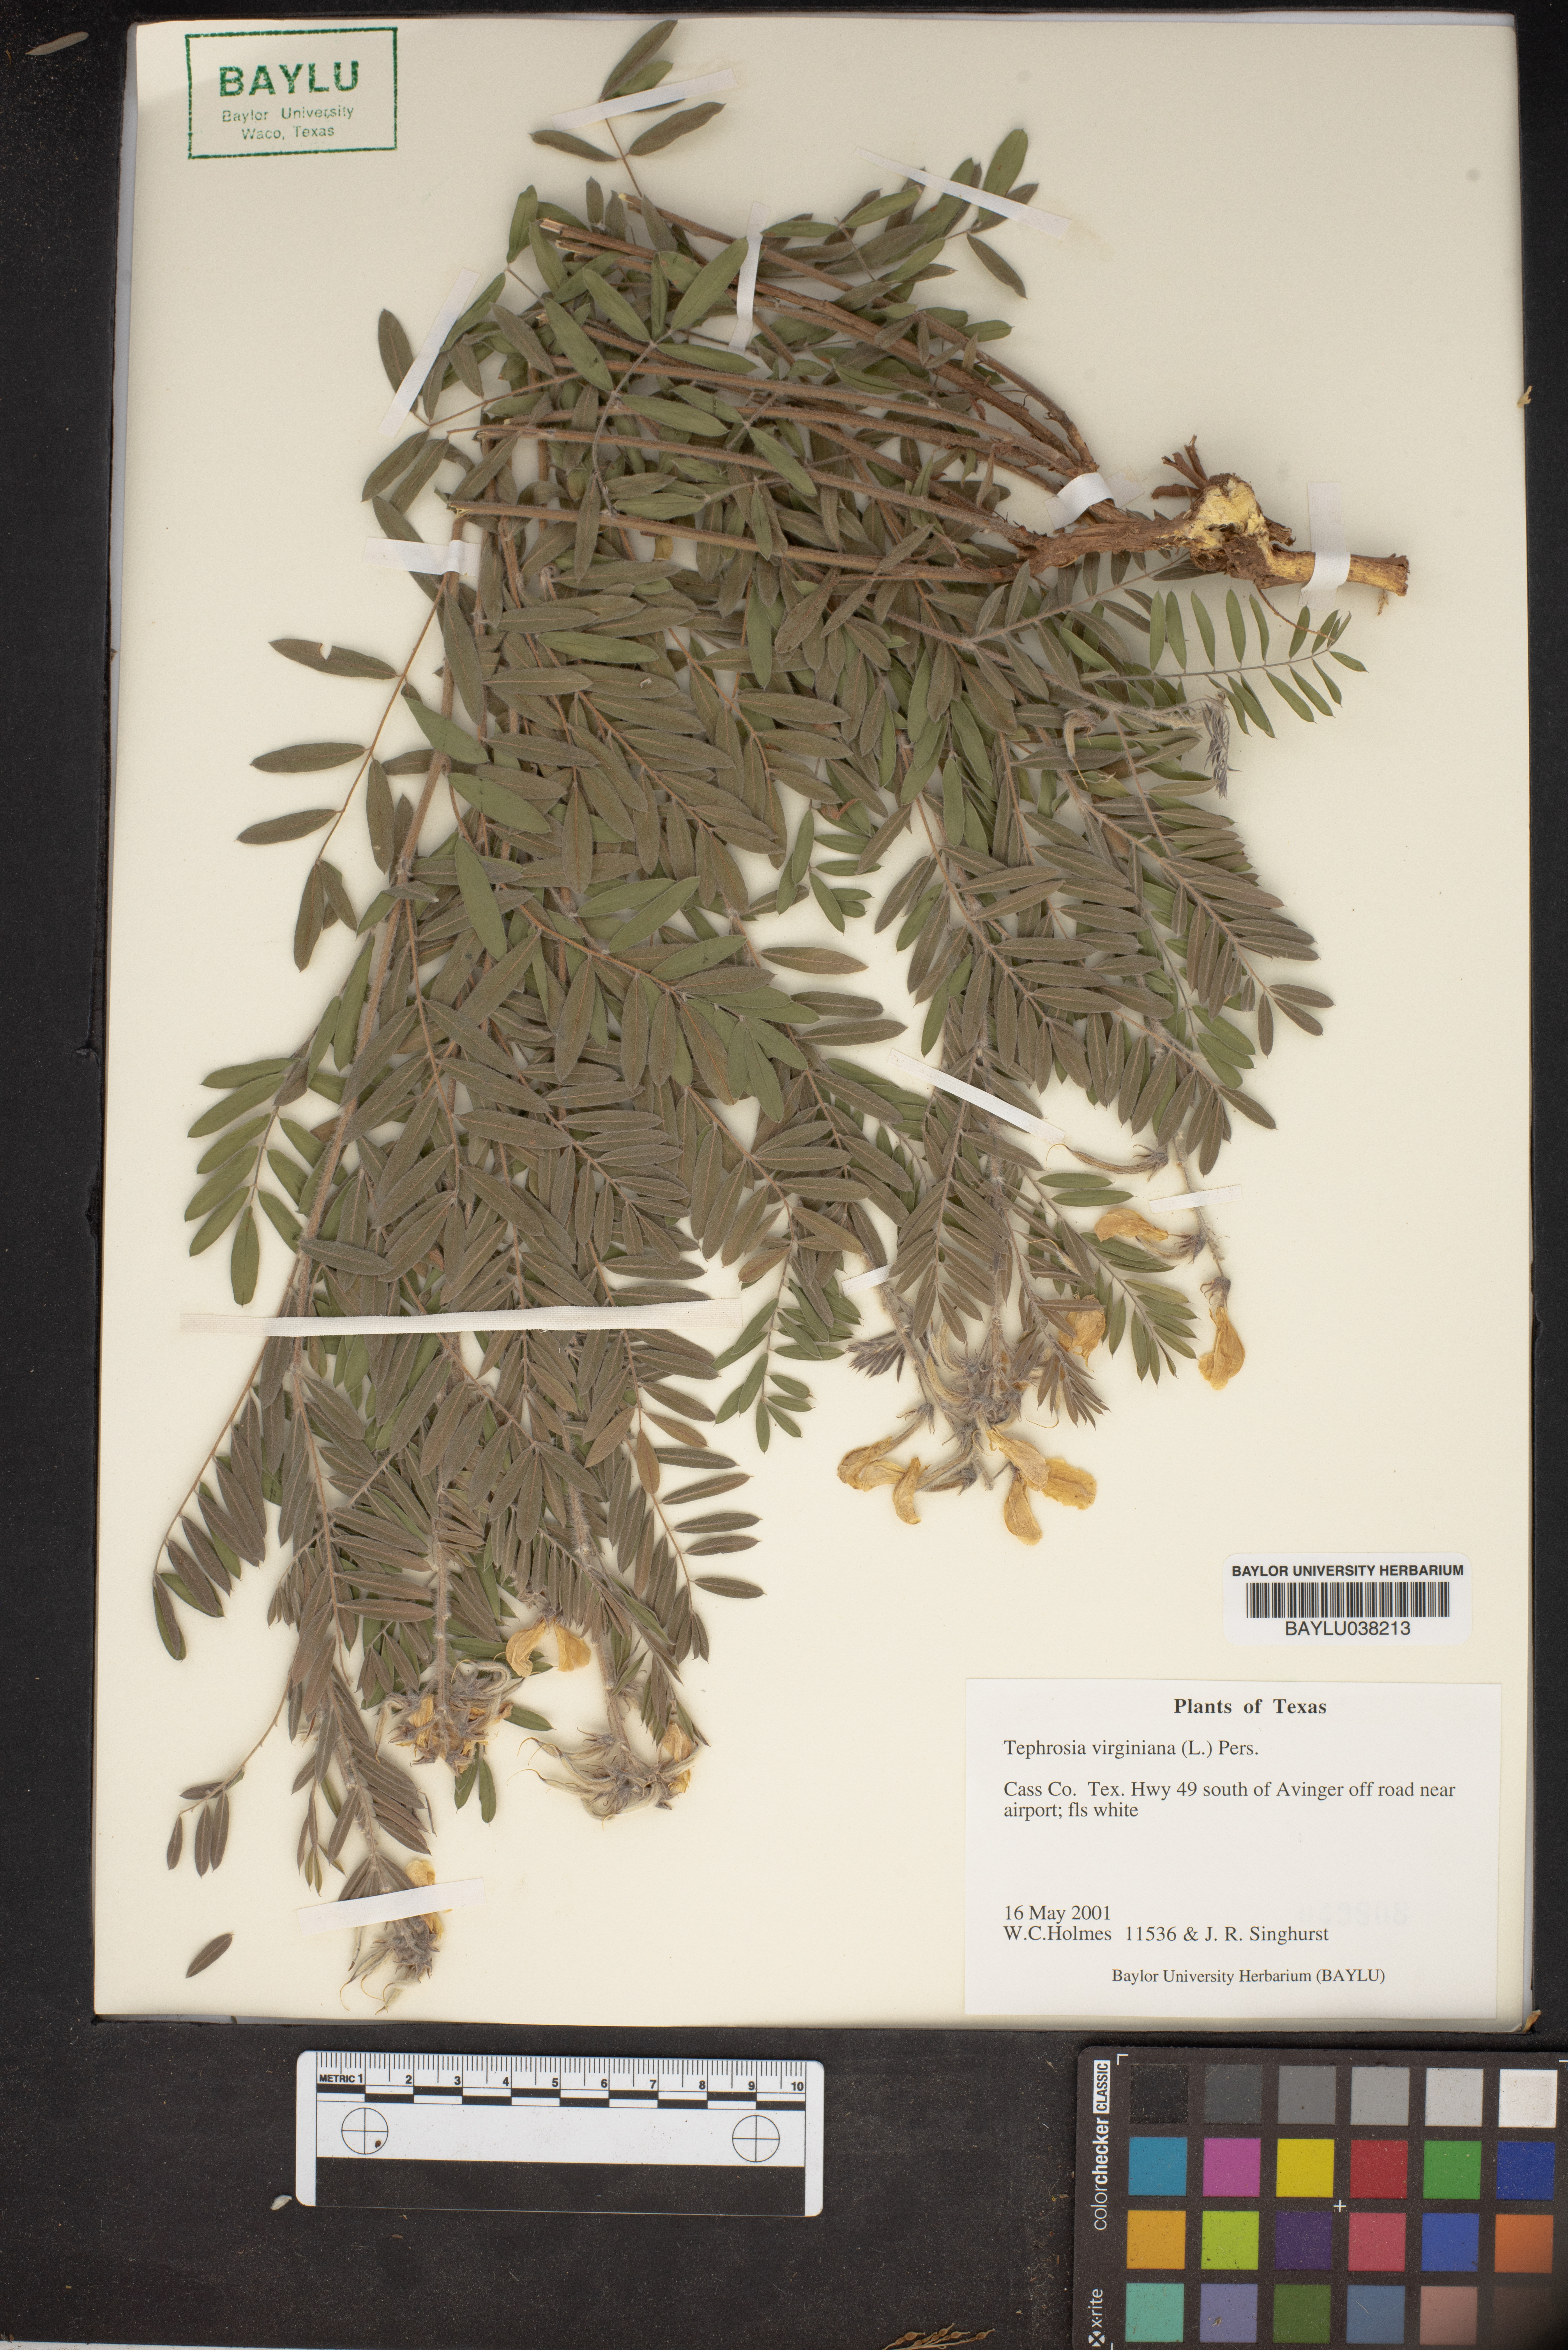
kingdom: Plantae
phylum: Tracheophyta
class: Magnoliopsida
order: Fabales
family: Fabaceae
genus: Tephrosia
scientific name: Tephrosia virginiana
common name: Rabbit-pea
